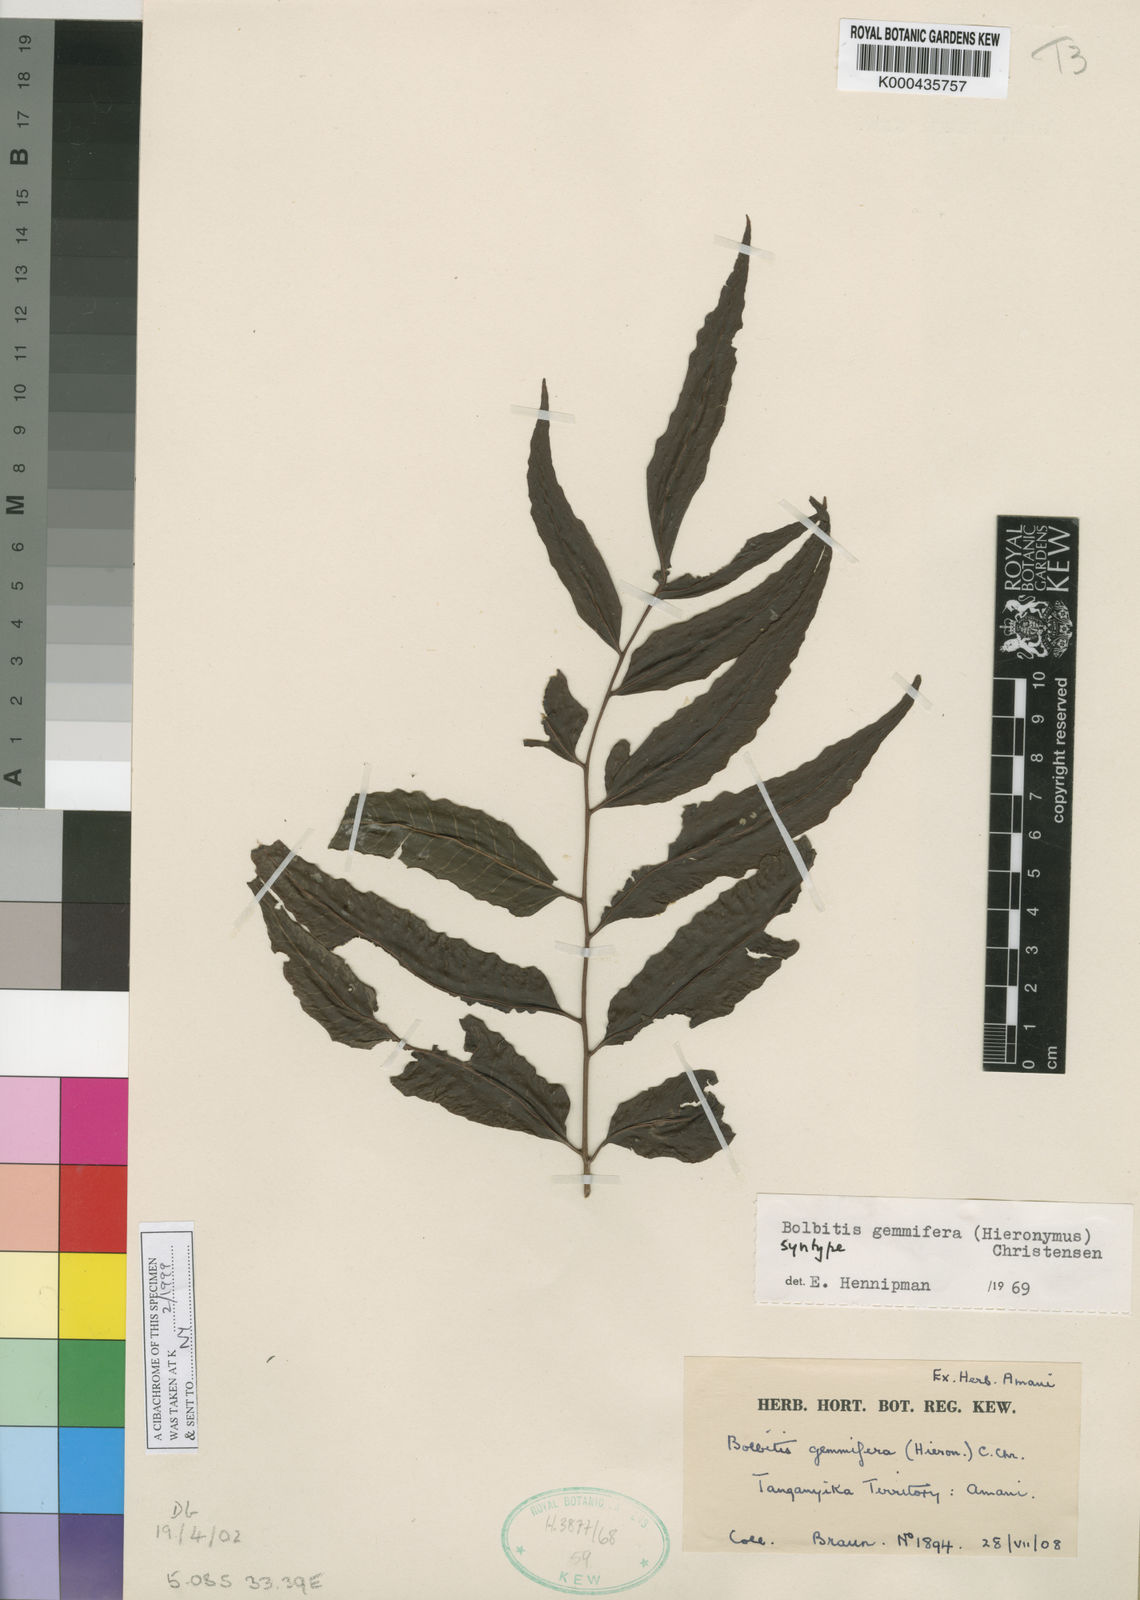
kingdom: Plantae
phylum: Tracheophyta
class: Polypodiopsida
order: Polypodiales
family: Dryopteridaceae
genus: Bolbitis
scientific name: Bolbitis
